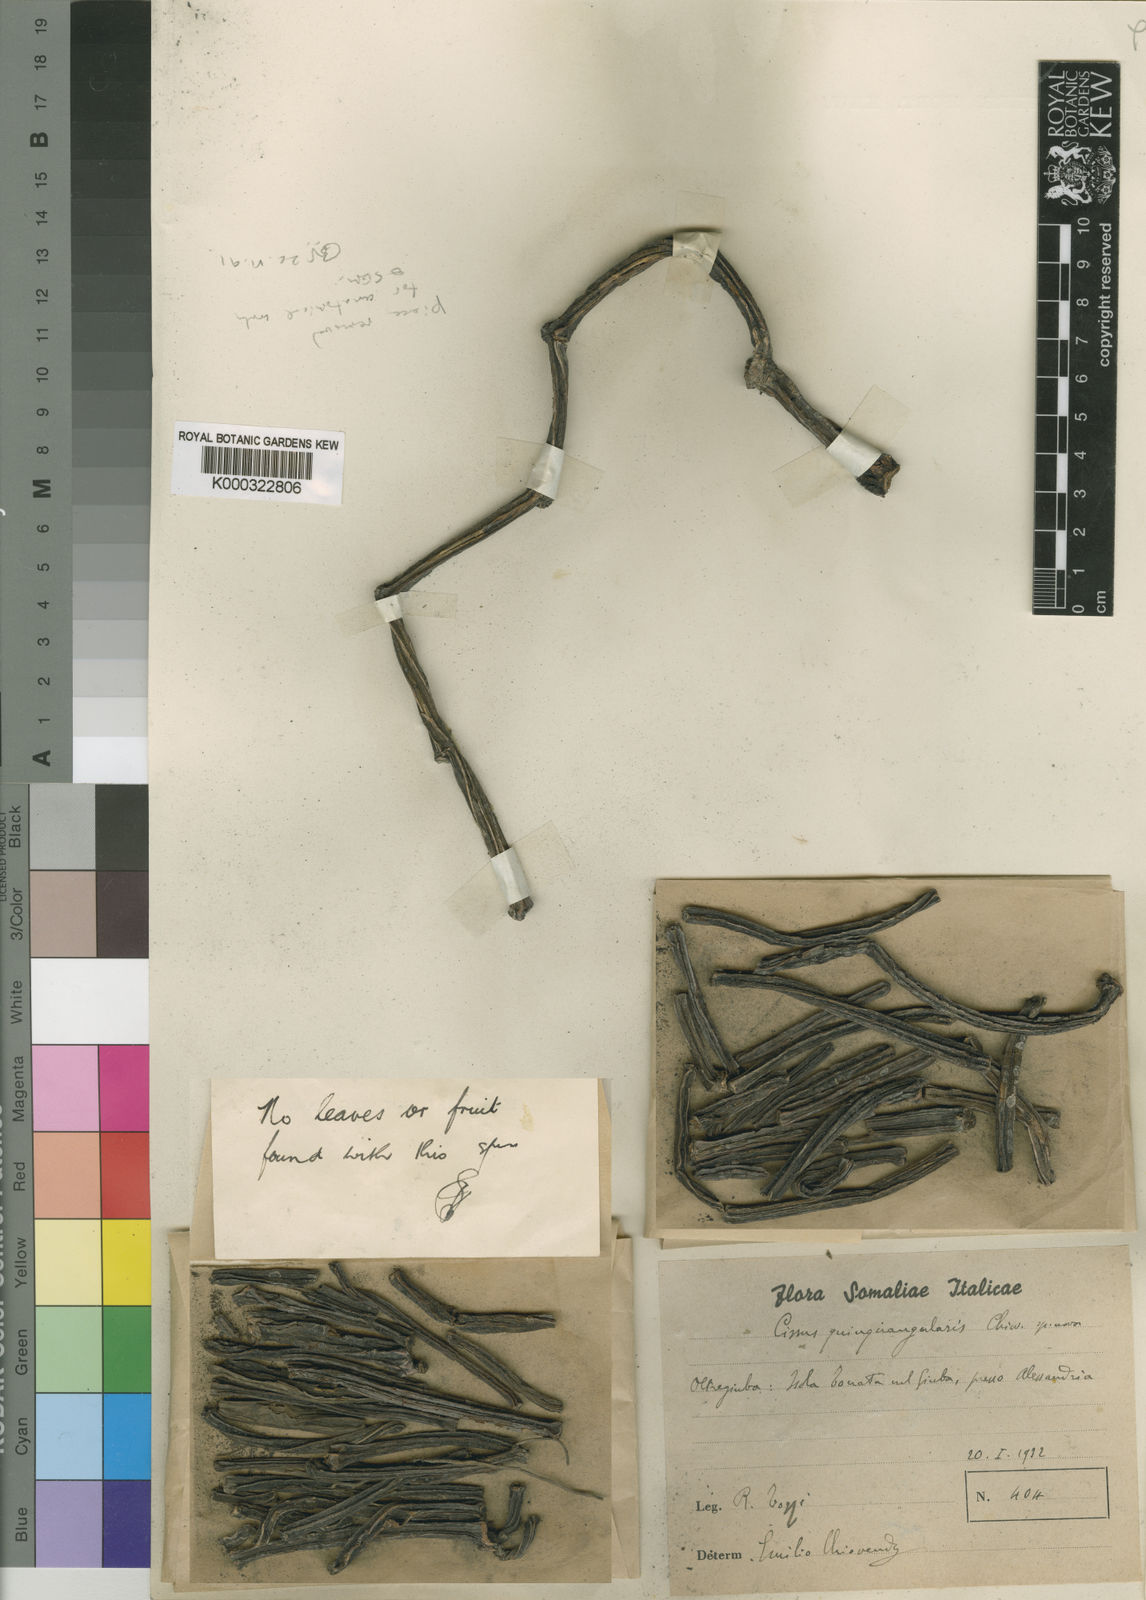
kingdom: Plantae
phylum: Tracheophyta
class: Magnoliopsida
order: Vitales
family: Vitaceae
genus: Cissus
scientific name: Cissus quinquangularis
